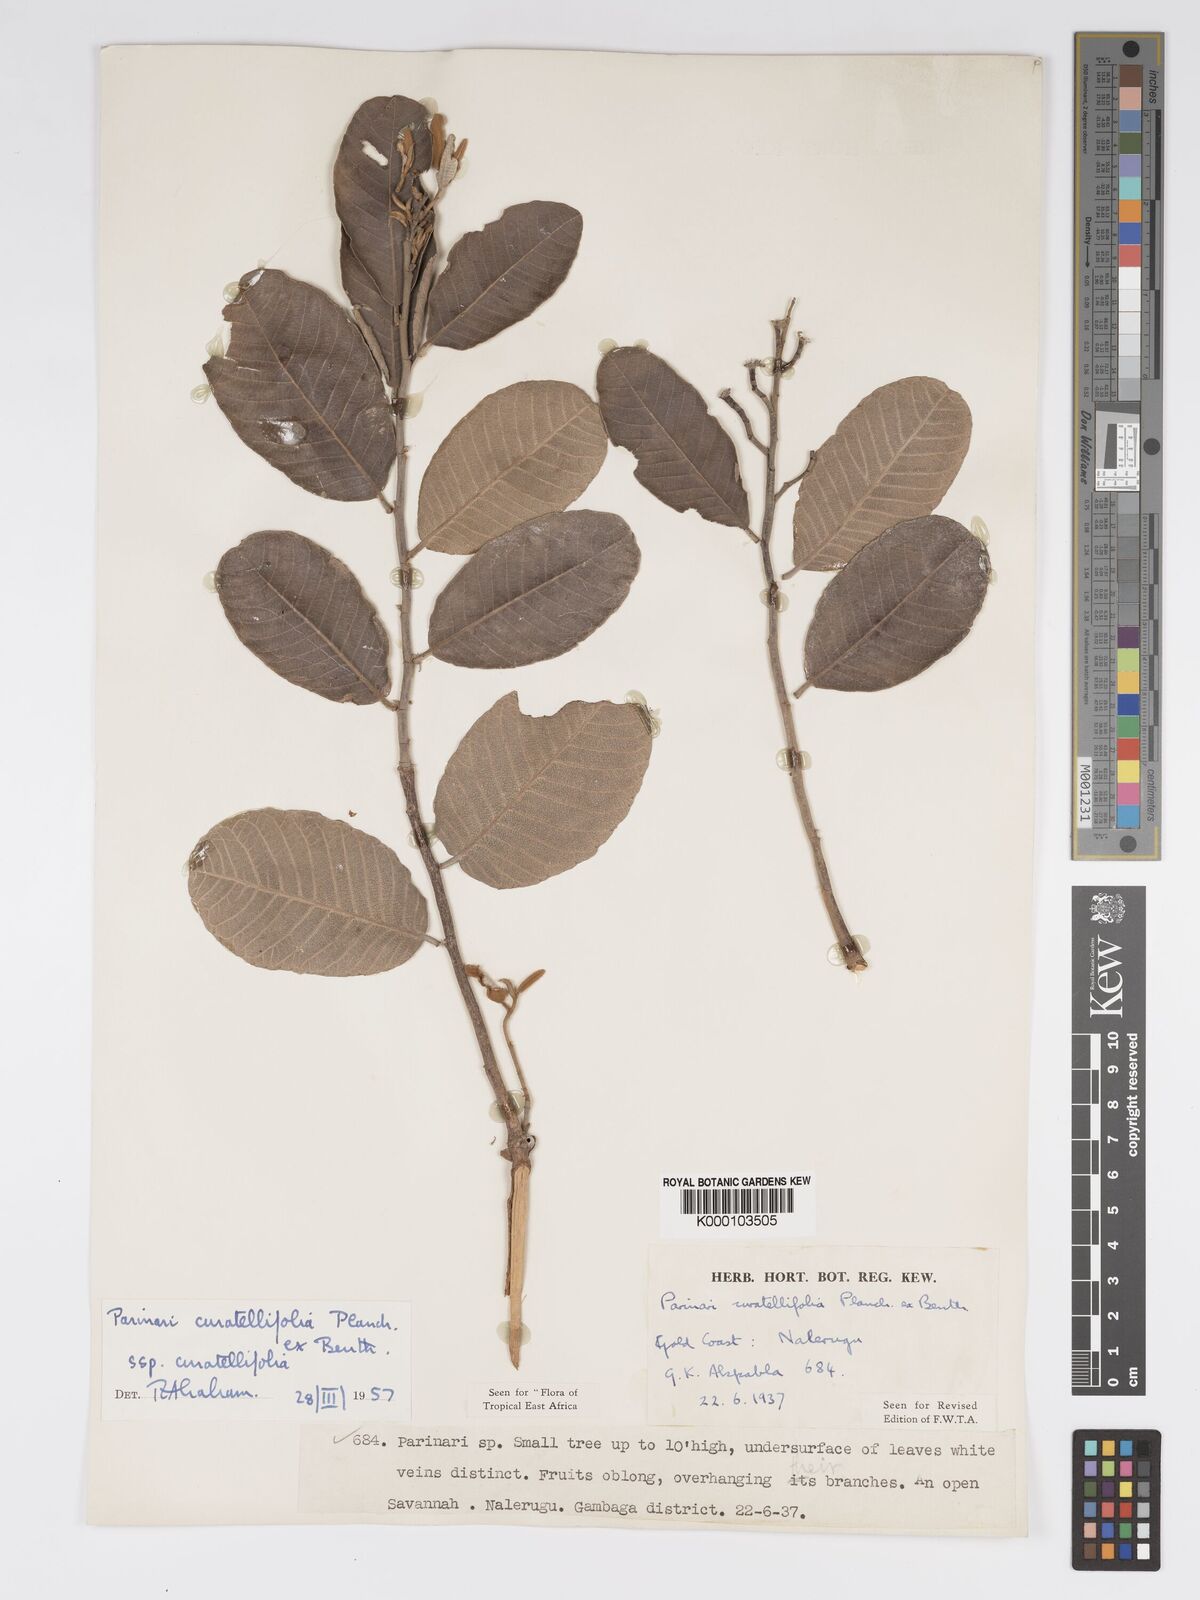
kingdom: Plantae
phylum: Tracheophyta
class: Magnoliopsida
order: Malpighiales
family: Chrysobalanaceae
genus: Parinari
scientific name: Parinari curatellifolia
